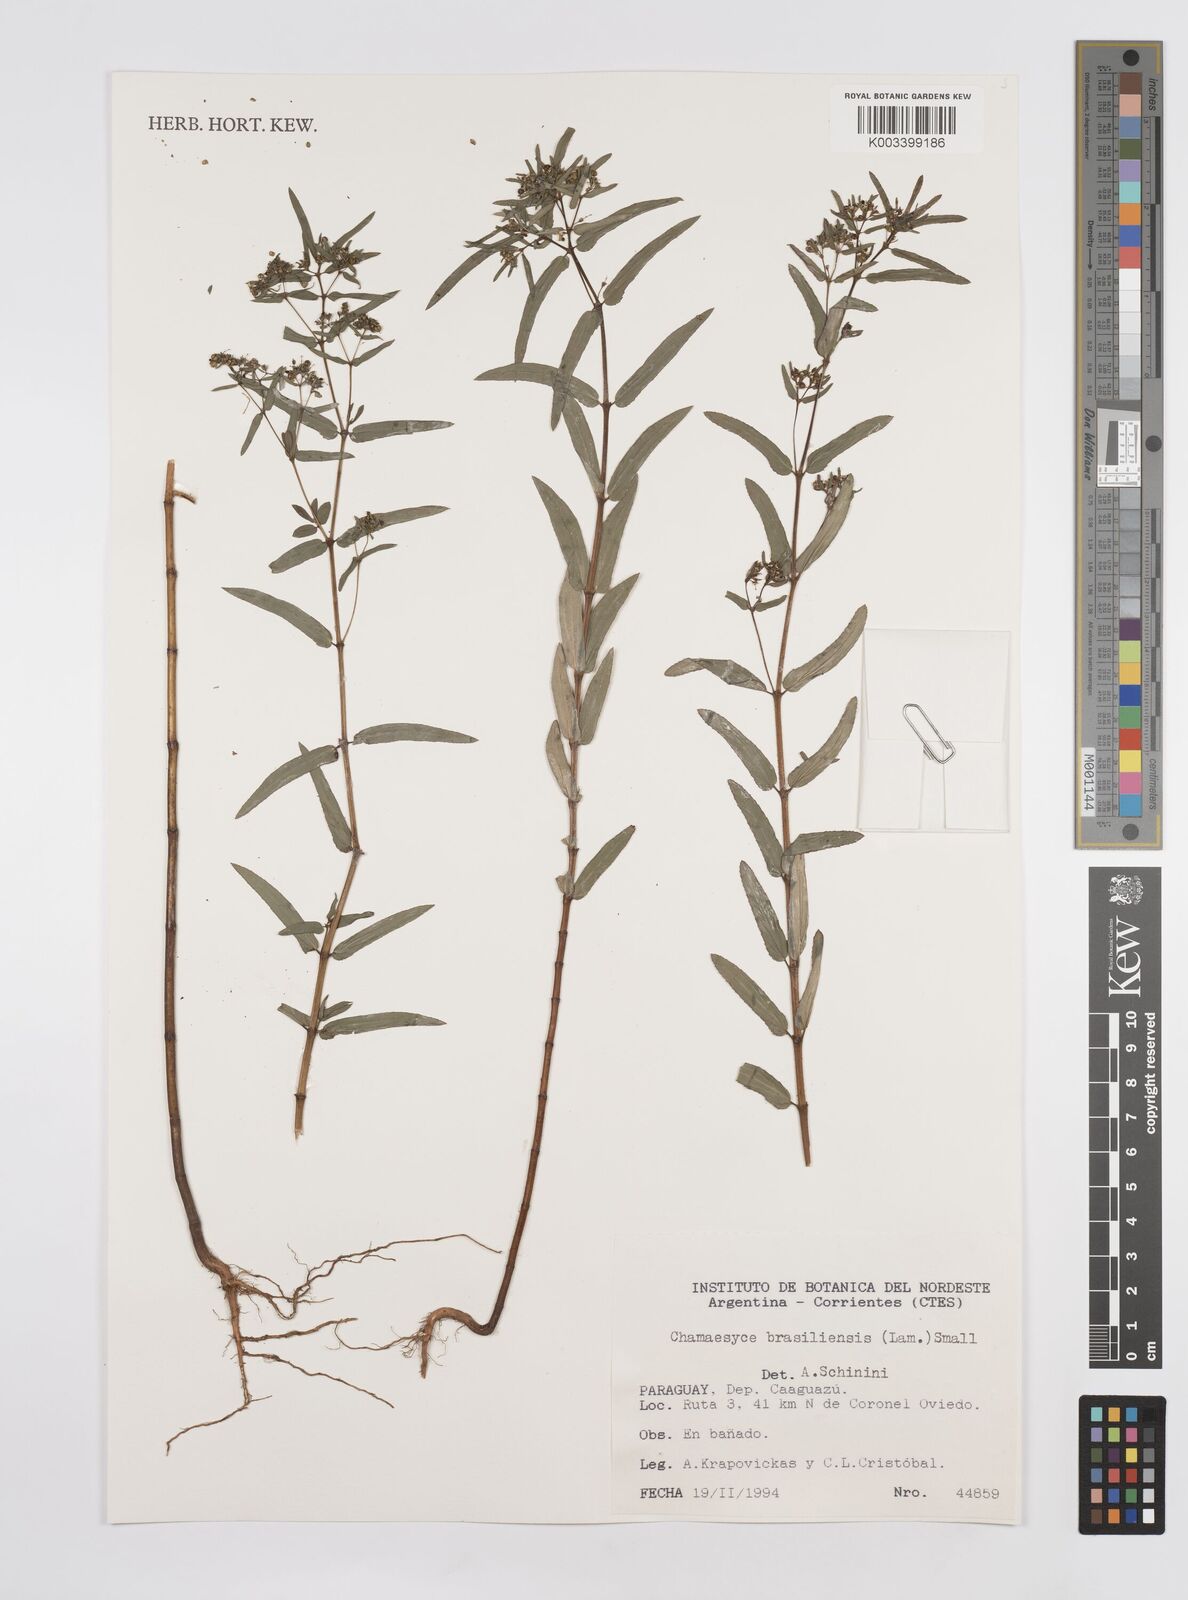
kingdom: Plantae
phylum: Tracheophyta
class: Magnoliopsida
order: Malpighiales
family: Euphorbiaceae
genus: Euphorbia
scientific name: Euphorbia hyssopifolia
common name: Hyssopleaf sandmat
